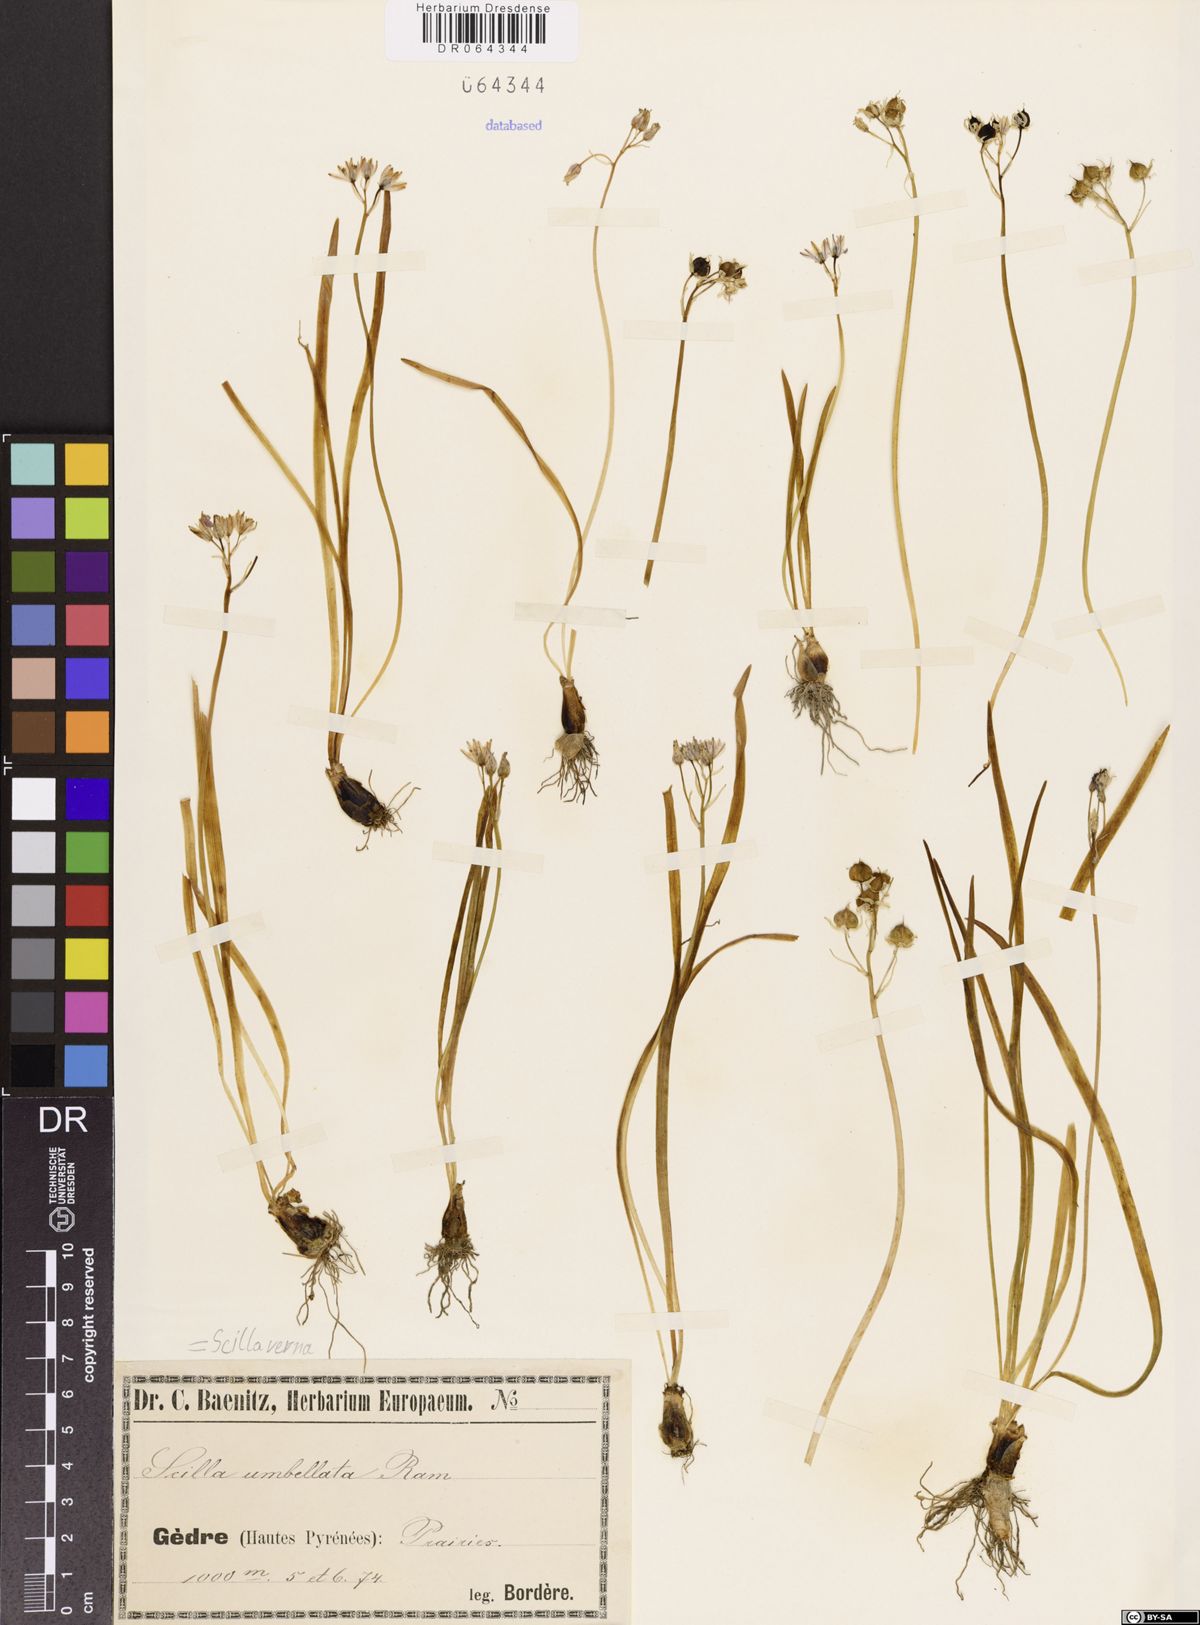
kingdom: Plantae
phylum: Tracheophyta
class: Liliopsida
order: Asparagales
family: Asparagaceae
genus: Scilla
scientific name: Scilla verna
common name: Spring squill
